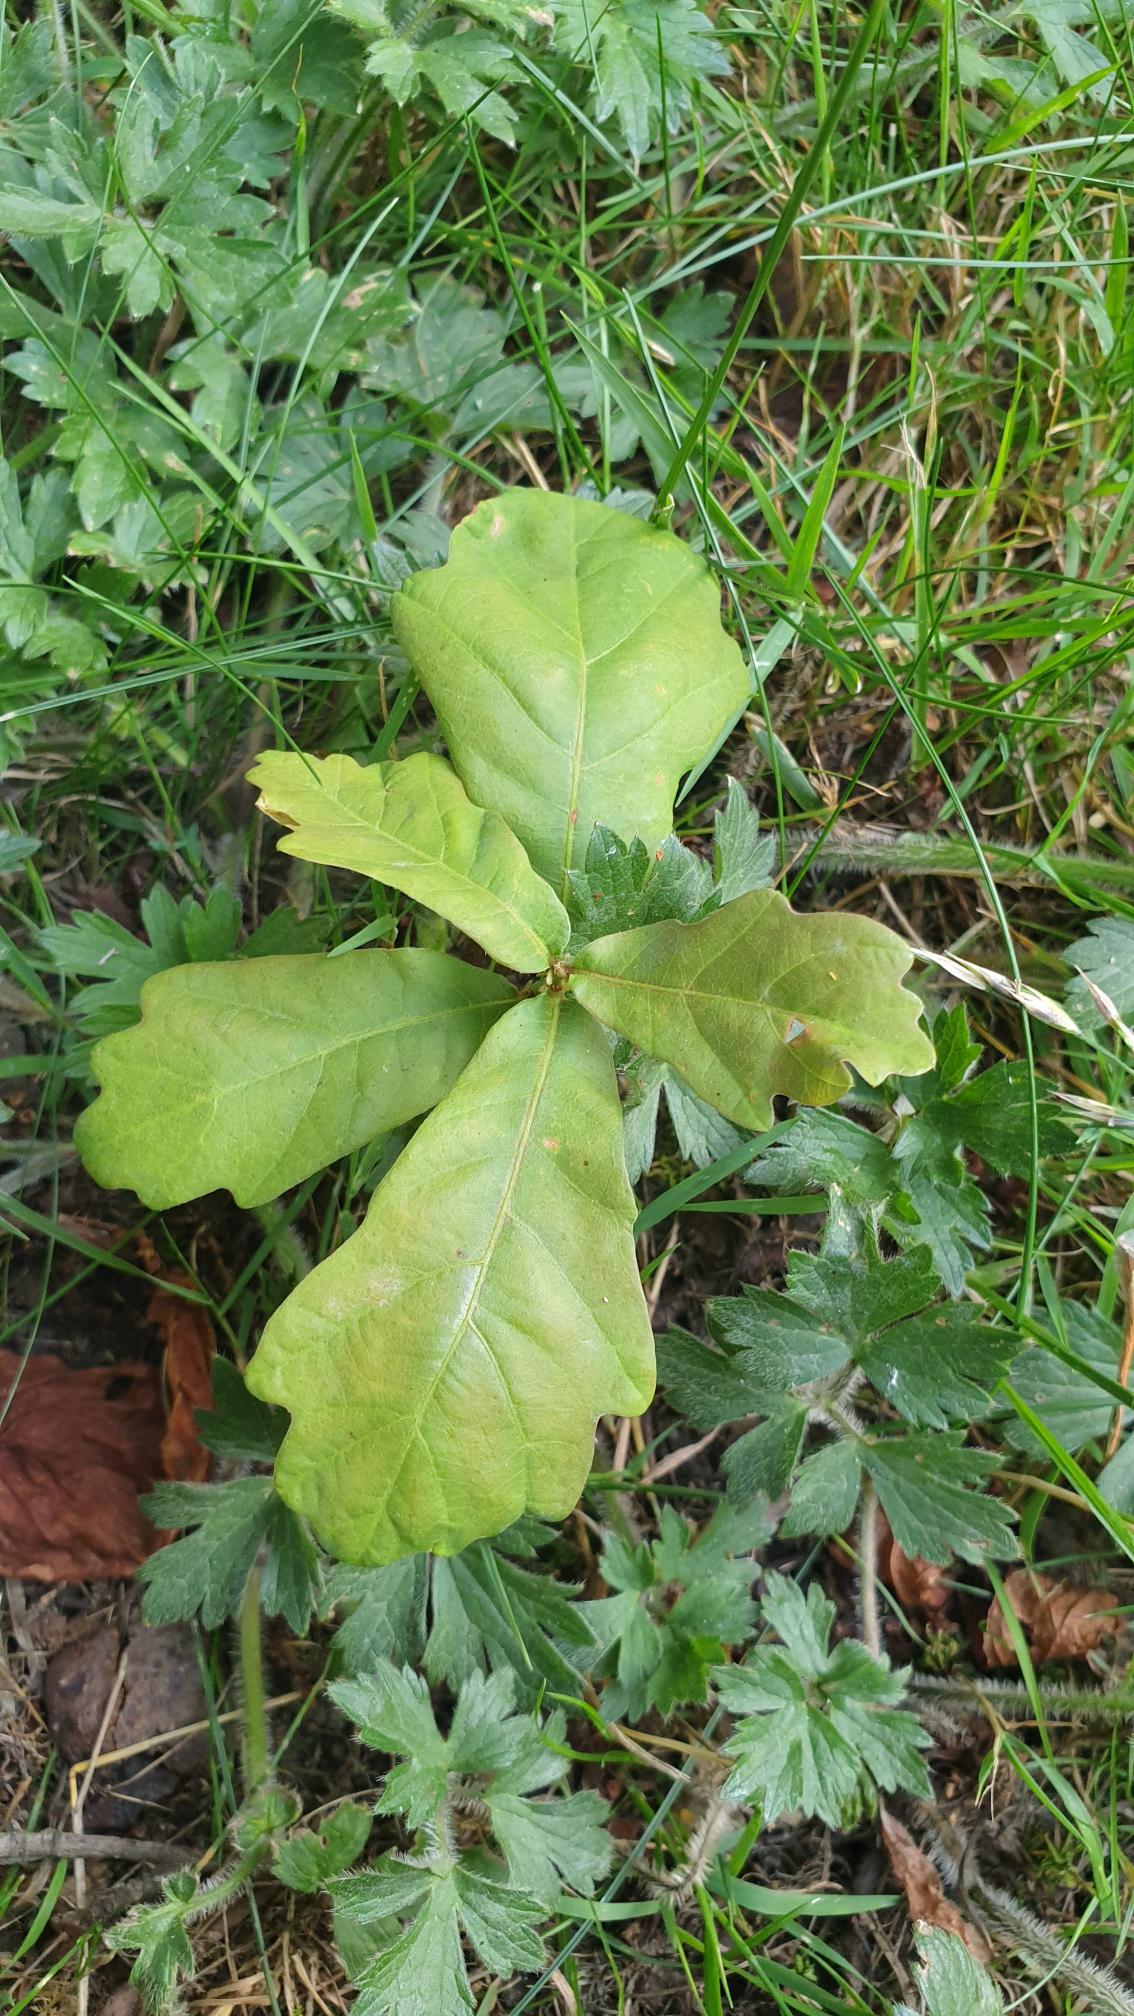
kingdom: Plantae
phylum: Tracheophyta
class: Magnoliopsida
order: Fagales
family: Fagaceae
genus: Quercus
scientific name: Quercus robur
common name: Stilk-eg/almindelig eg
